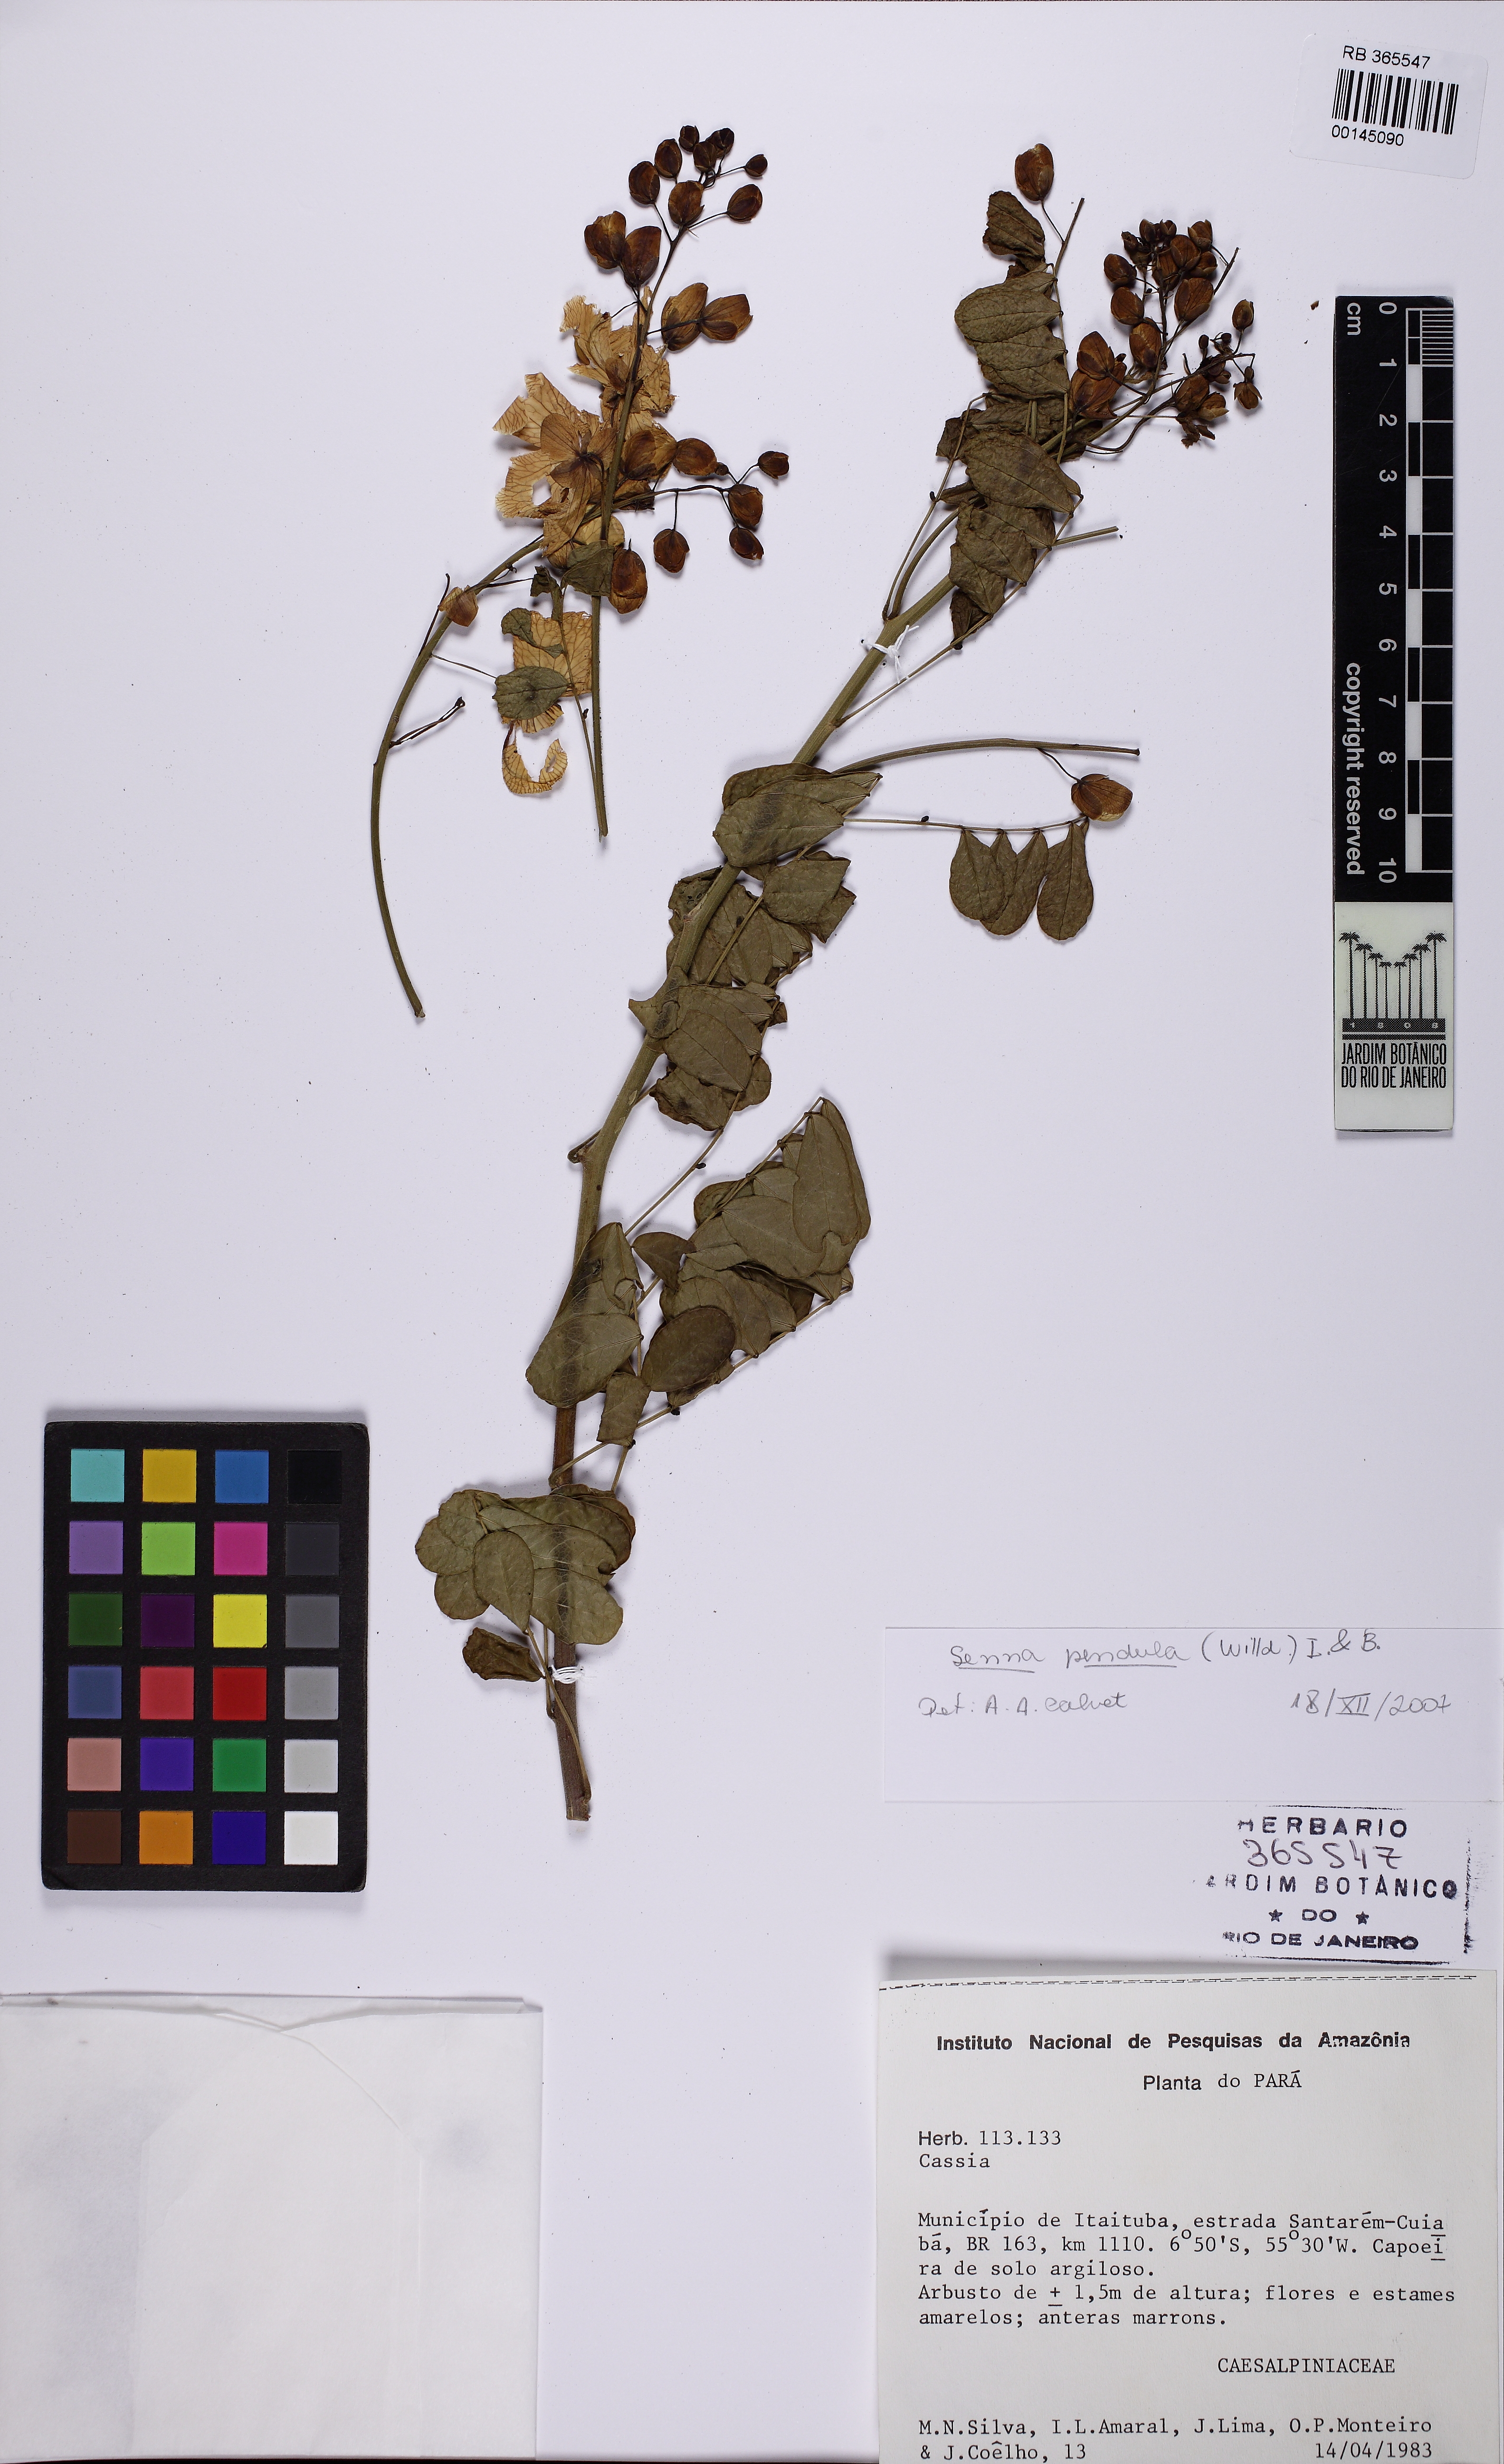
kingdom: Plantae
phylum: Tracheophyta
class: Magnoliopsida
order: Fabales
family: Fabaceae
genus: Senna
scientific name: Senna pendula
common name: Easter cassia
